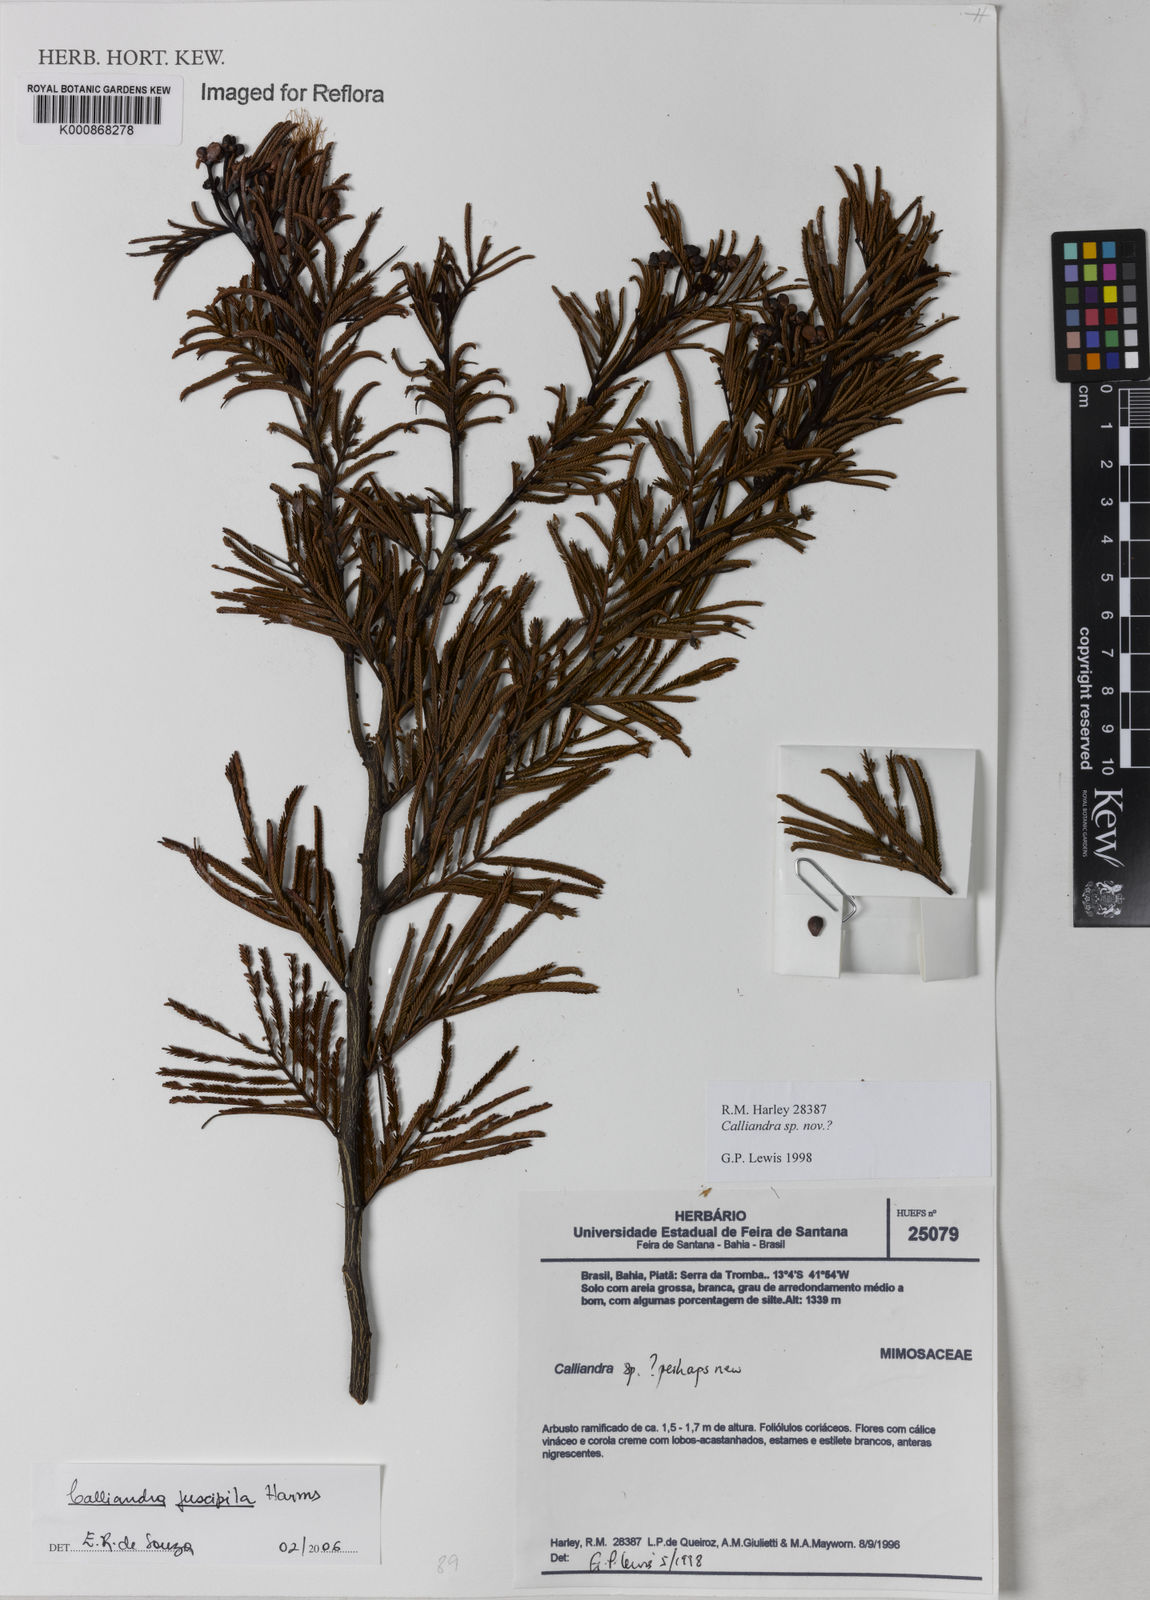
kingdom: Plantae
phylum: Tracheophyta
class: Magnoliopsida
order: Fabales
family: Fabaceae
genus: Calliandra
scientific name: Calliandra fuscipila
